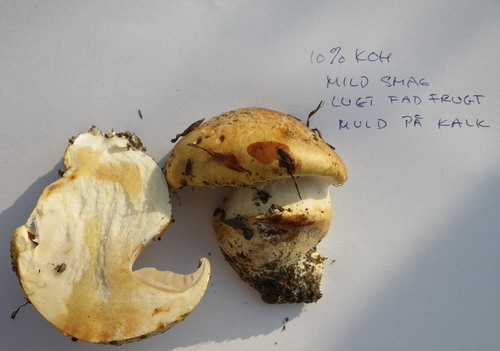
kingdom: Fungi
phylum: Basidiomycota
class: Agaricomycetes
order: Agaricales
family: Cortinariaceae
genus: Phlegmacium
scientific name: Phlegmacium caesiocortinatum
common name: rundsporet slørhat
